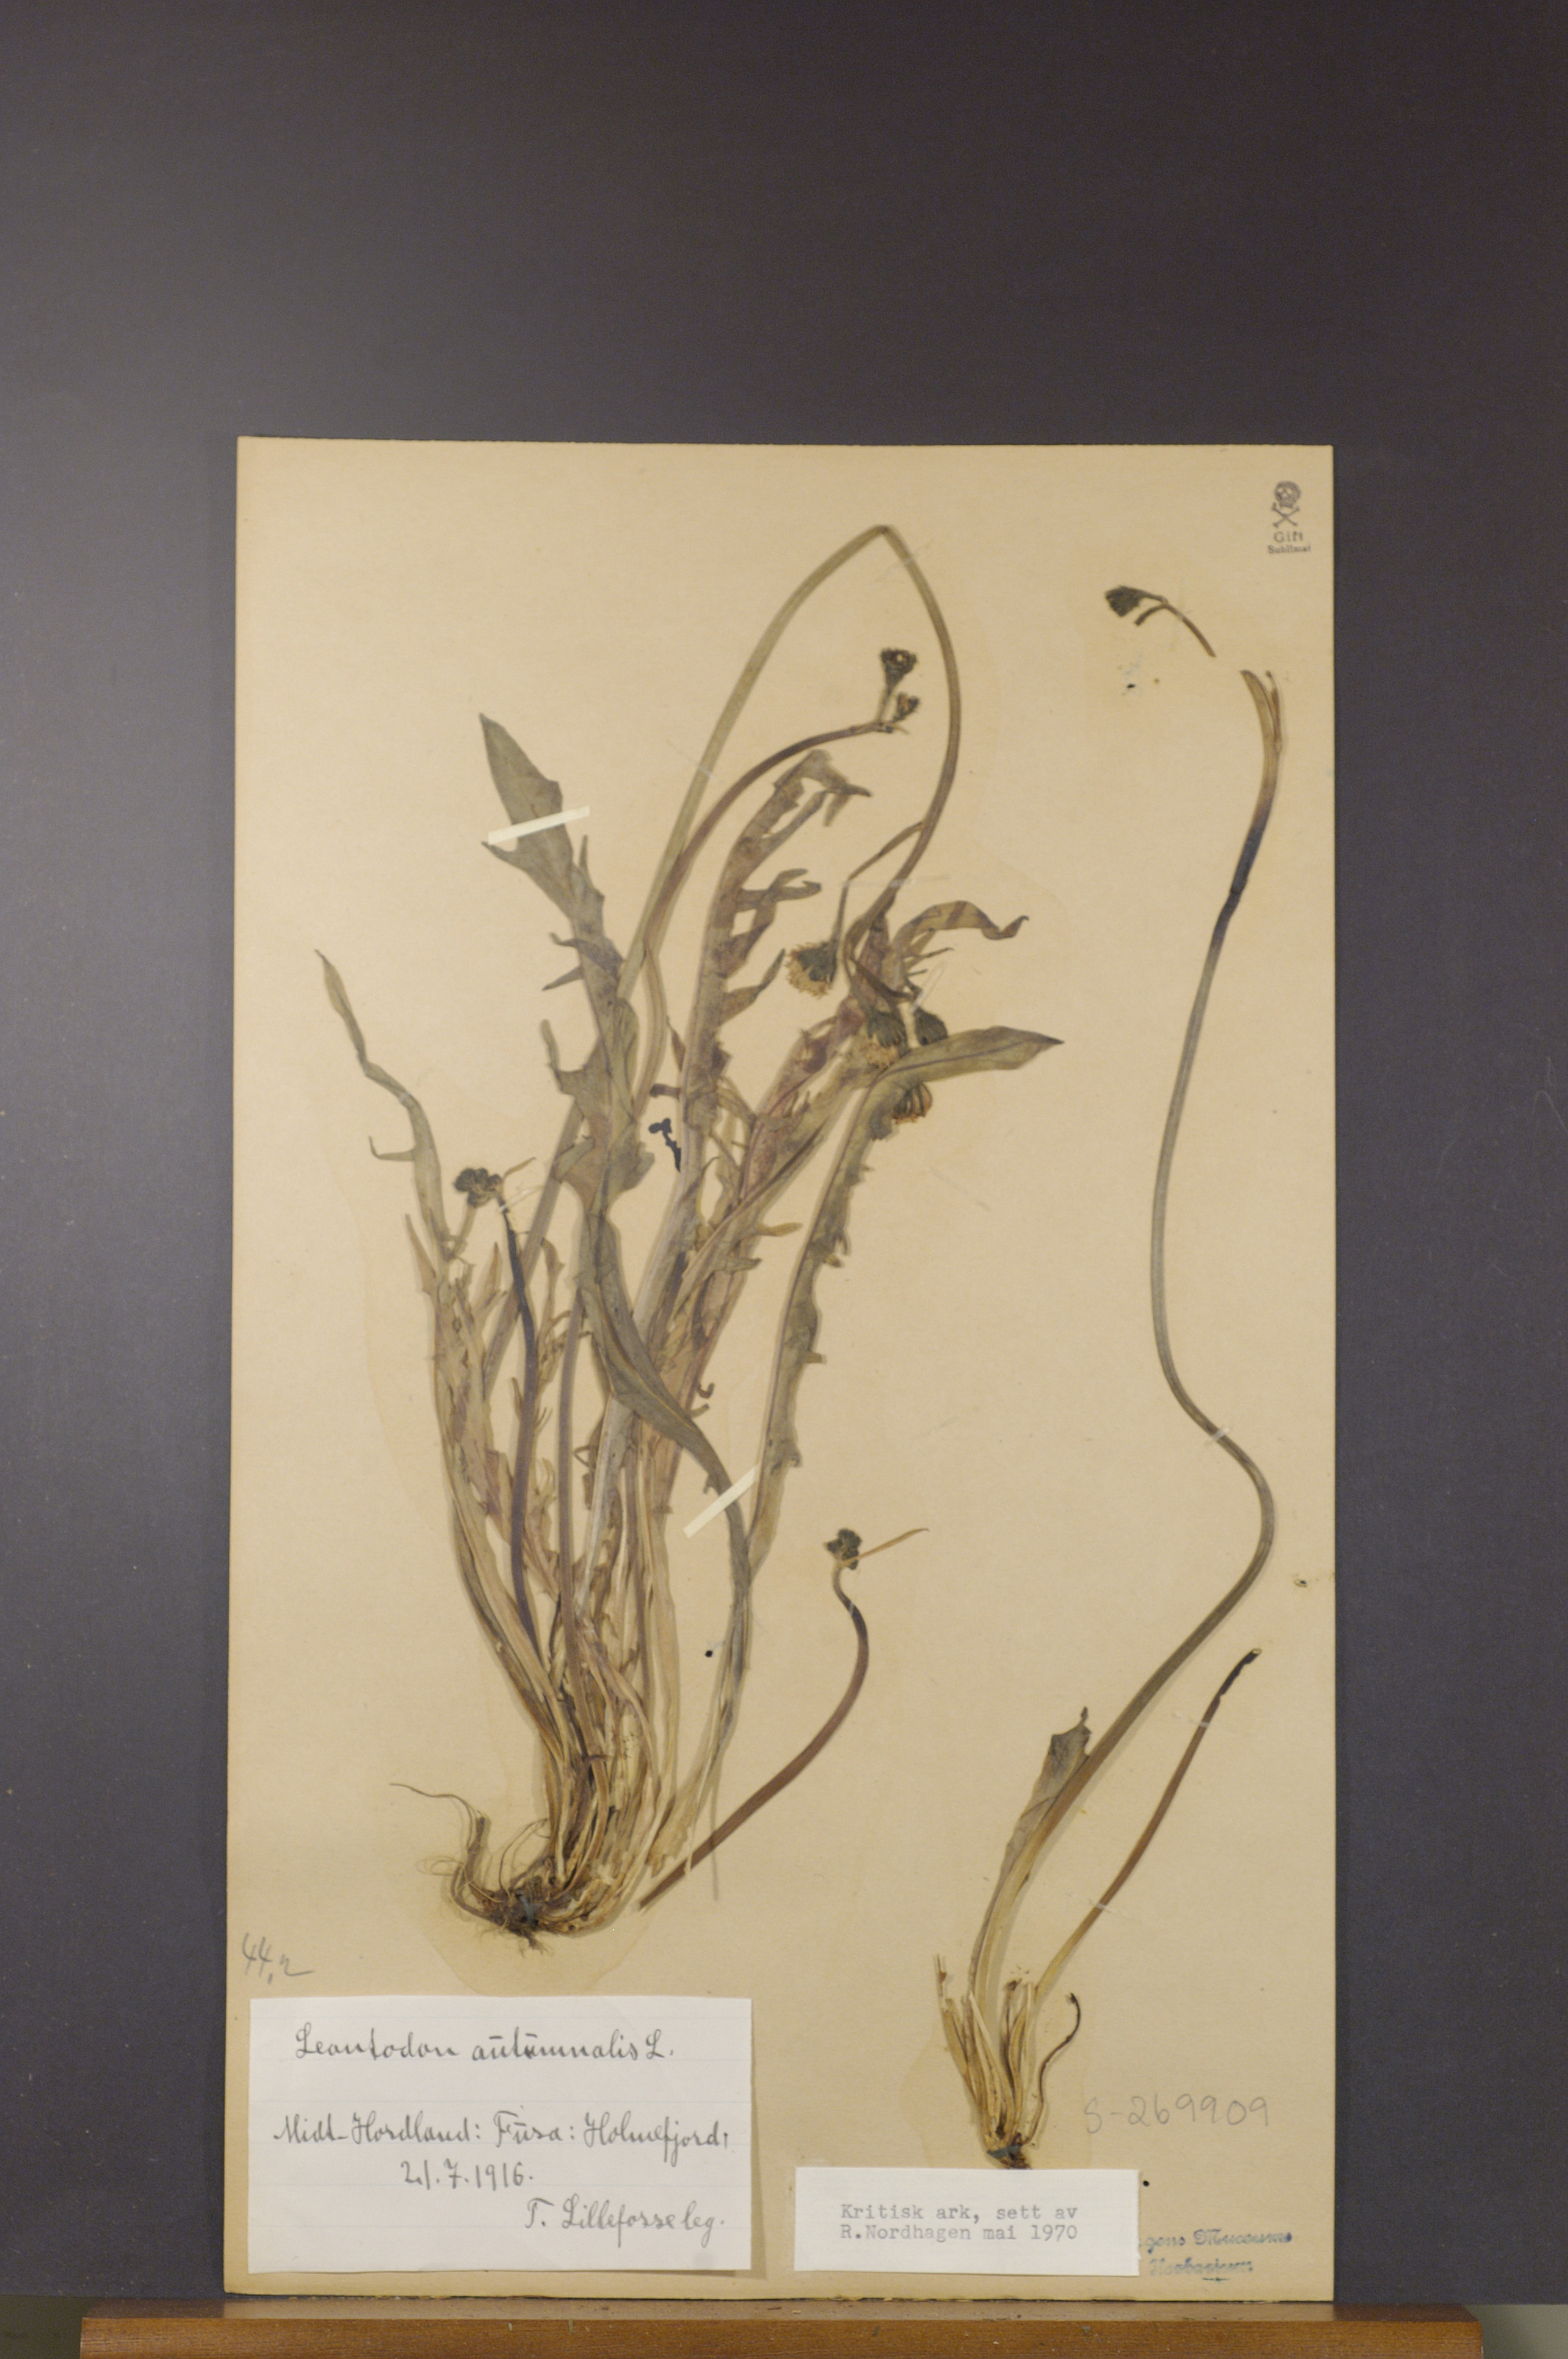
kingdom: Plantae
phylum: Tracheophyta
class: Magnoliopsida
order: Asterales
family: Asteraceae
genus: Scorzoneroides
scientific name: Scorzoneroides autumnalis
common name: Autumn hawkbit
